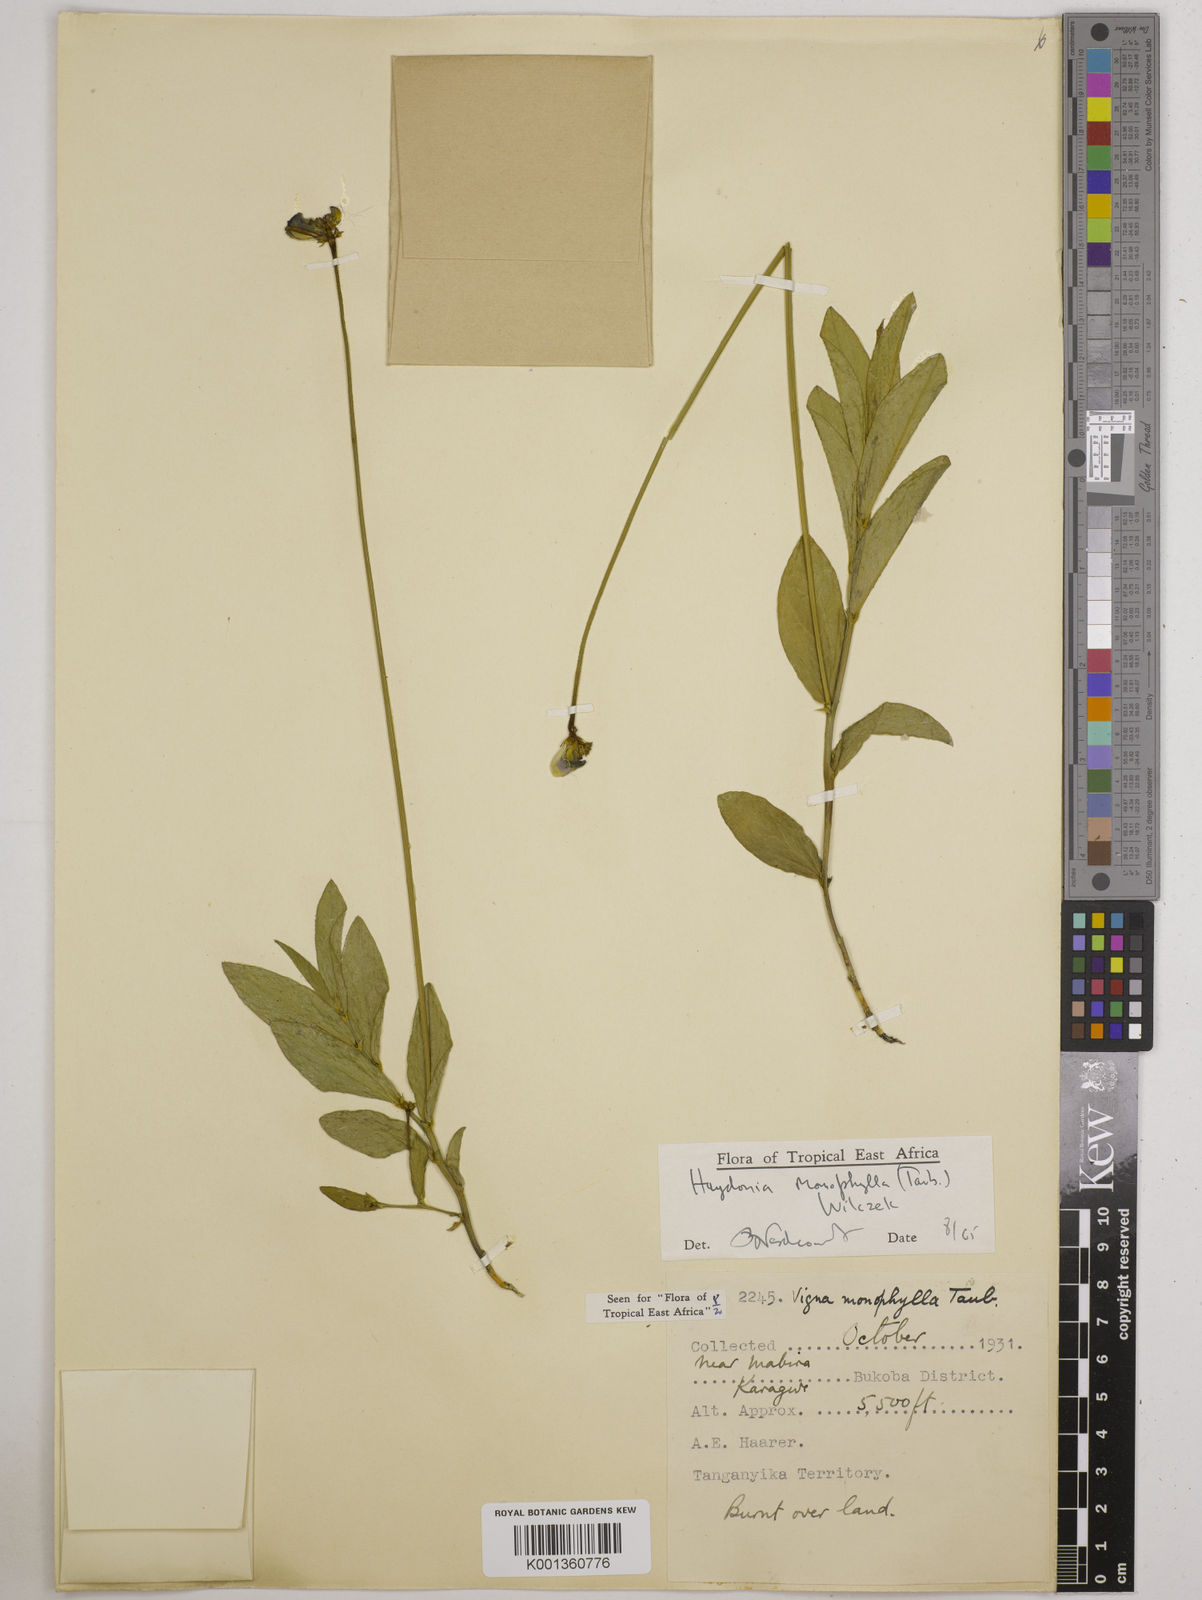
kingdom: Plantae
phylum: Tracheophyta
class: Magnoliopsida
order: Fabales
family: Fabaceae
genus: Vigna
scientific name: Vigna monophylla
